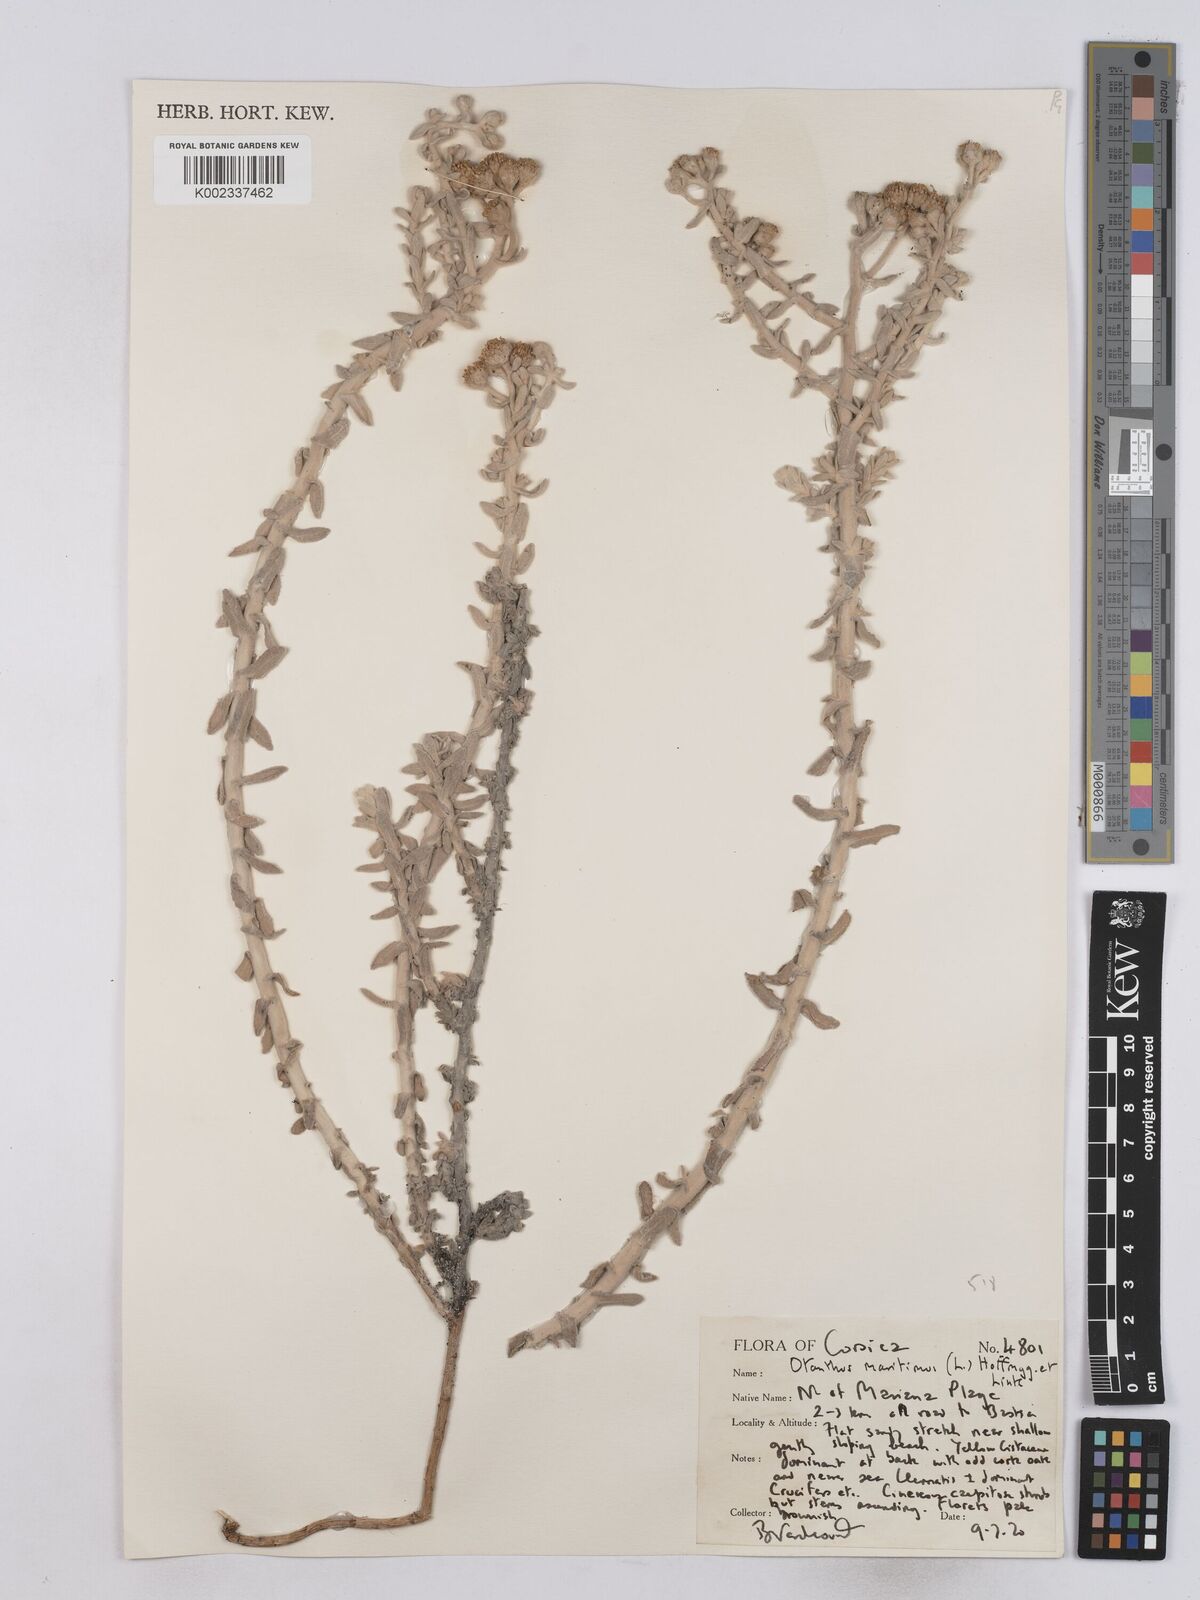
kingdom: Plantae
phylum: Tracheophyta
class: Magnoliopsida
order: Asterales
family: Asteraceae
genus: Achillea
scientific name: Achillea maritima
